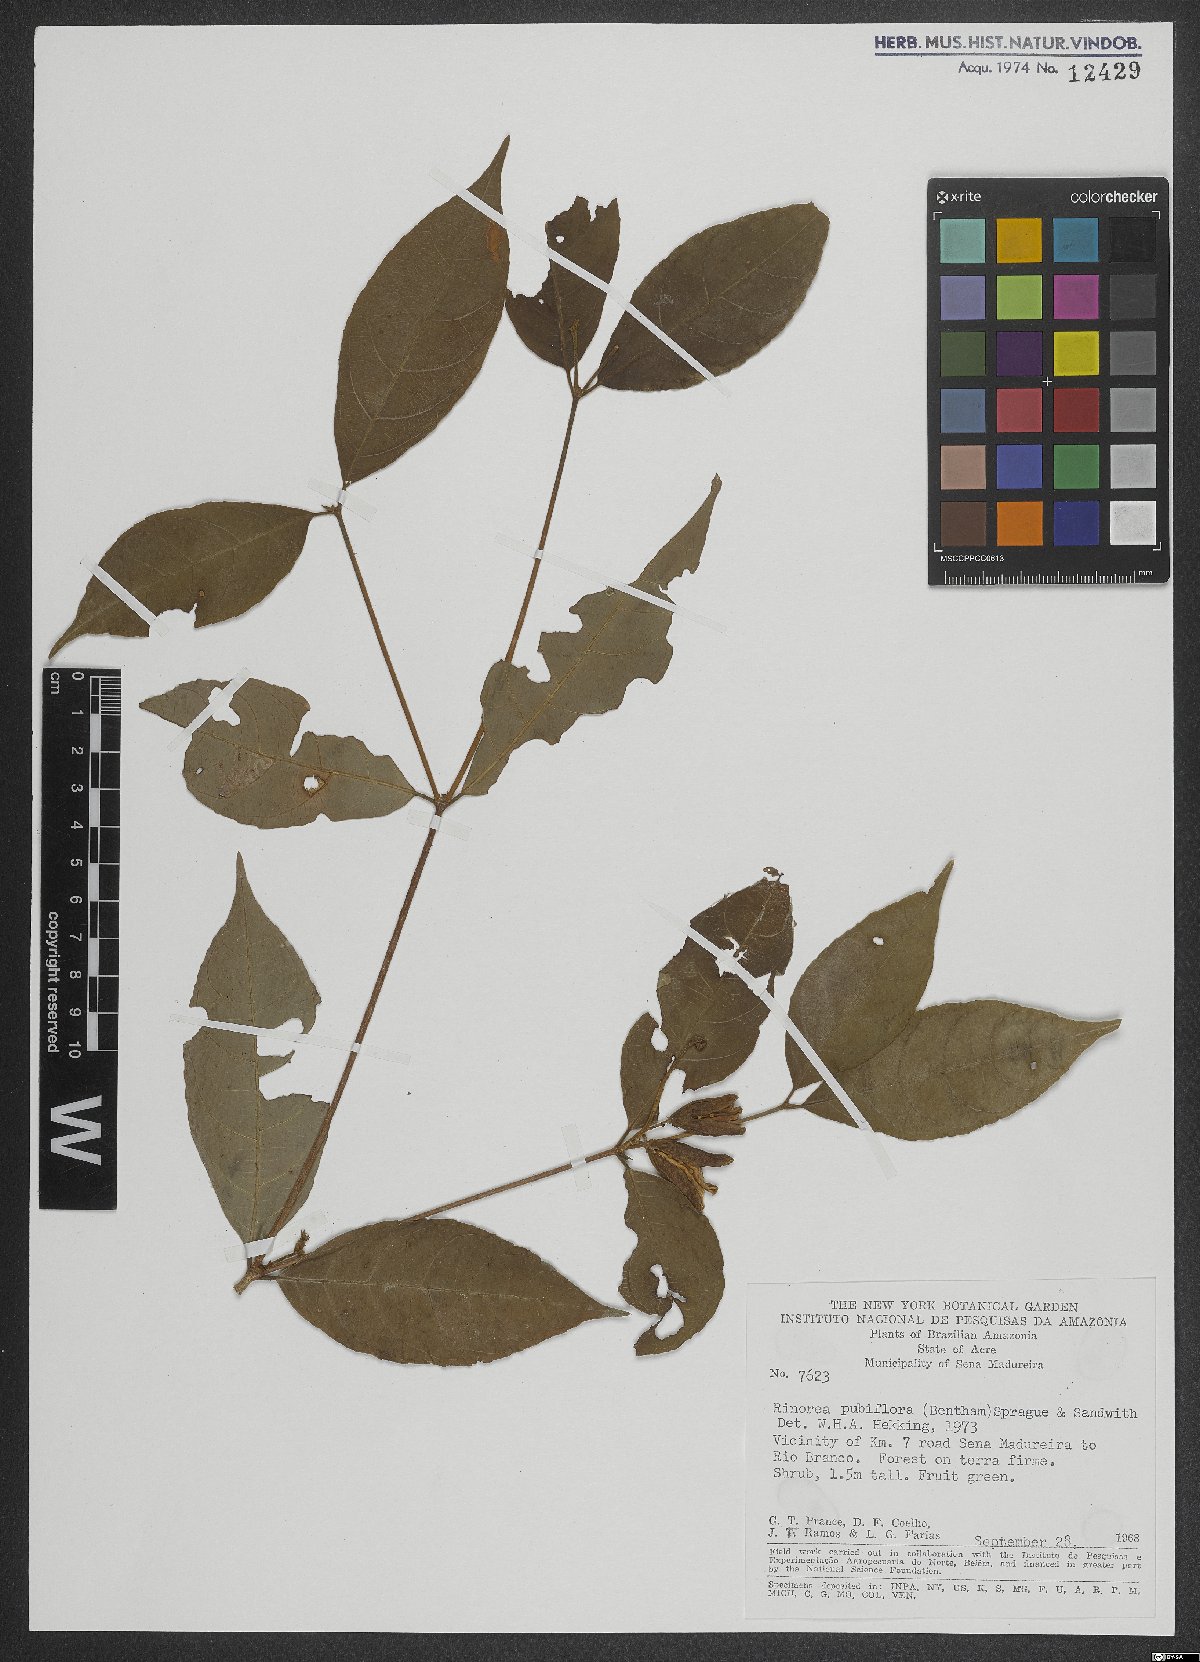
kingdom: Plantae
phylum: Tracheophyta
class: Magnoliopsida
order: Malpighiales
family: Violaceae
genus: Rinorea
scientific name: Rinorea pubiflora
